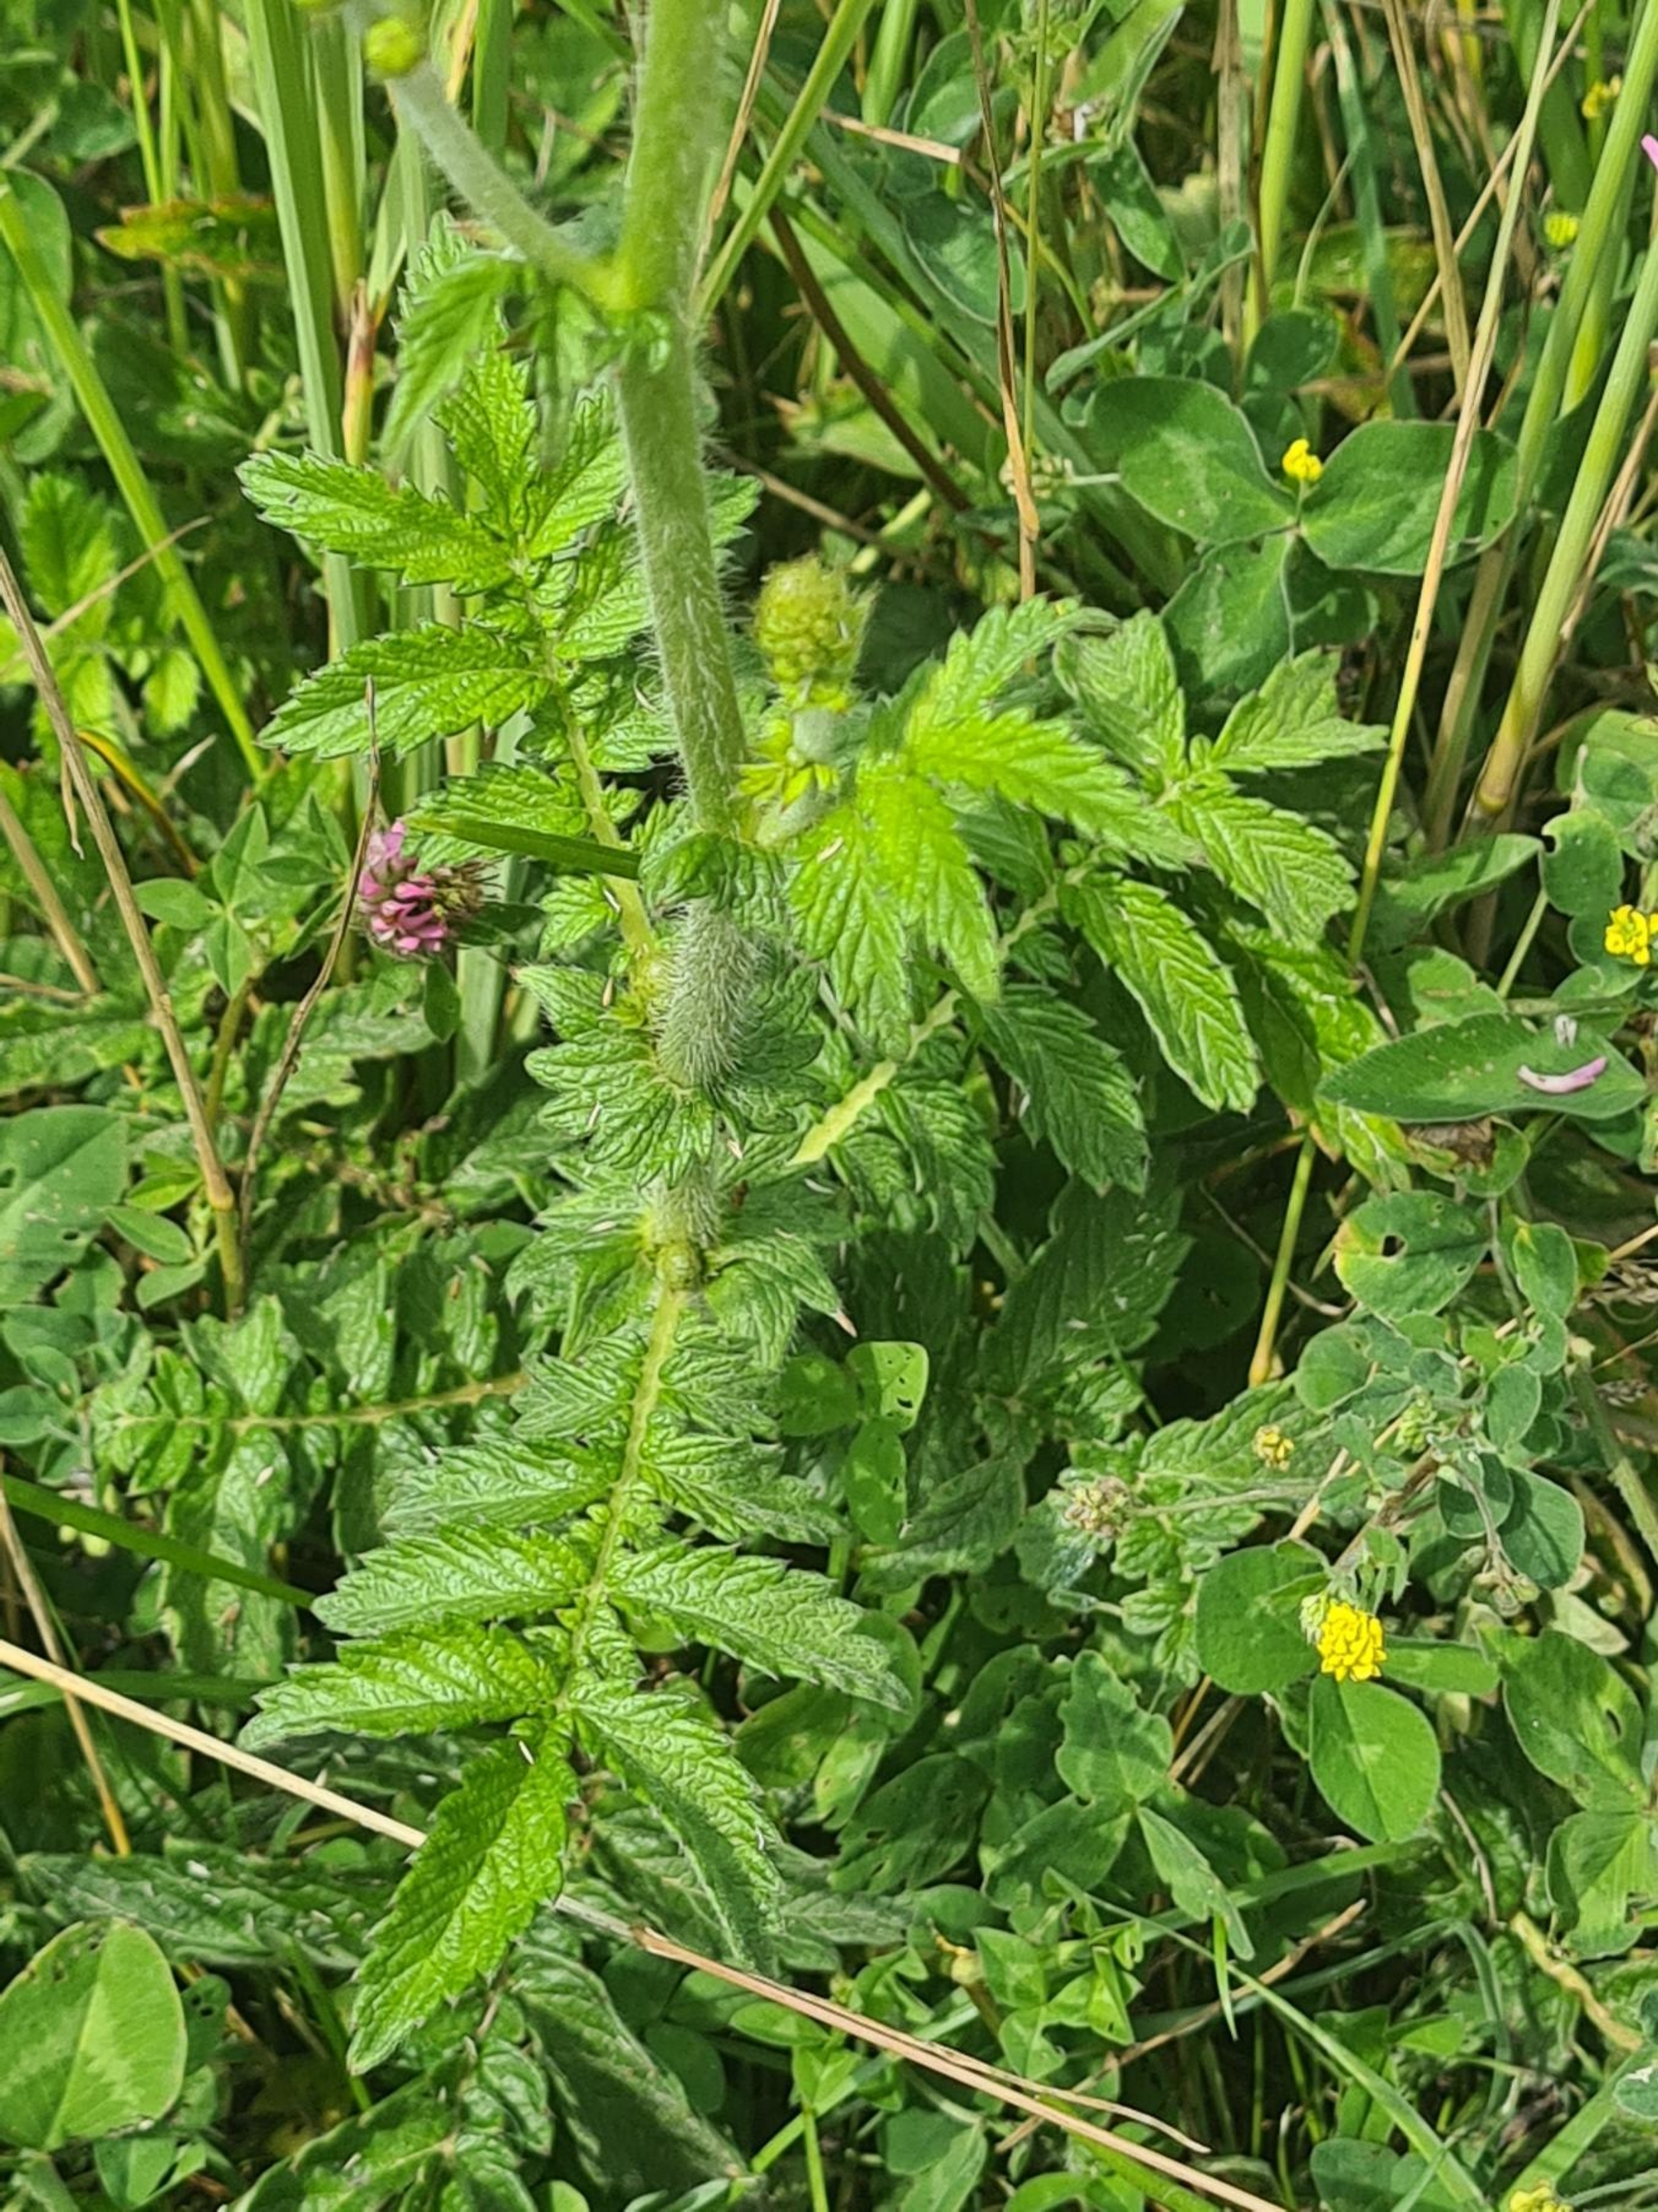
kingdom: Plantae
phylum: Tracheophyta
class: Magnoliopsida
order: Rosales
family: Rosaceae
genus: Agrimonia
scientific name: Agrimonia eupatoria
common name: Almindelig agermåne
